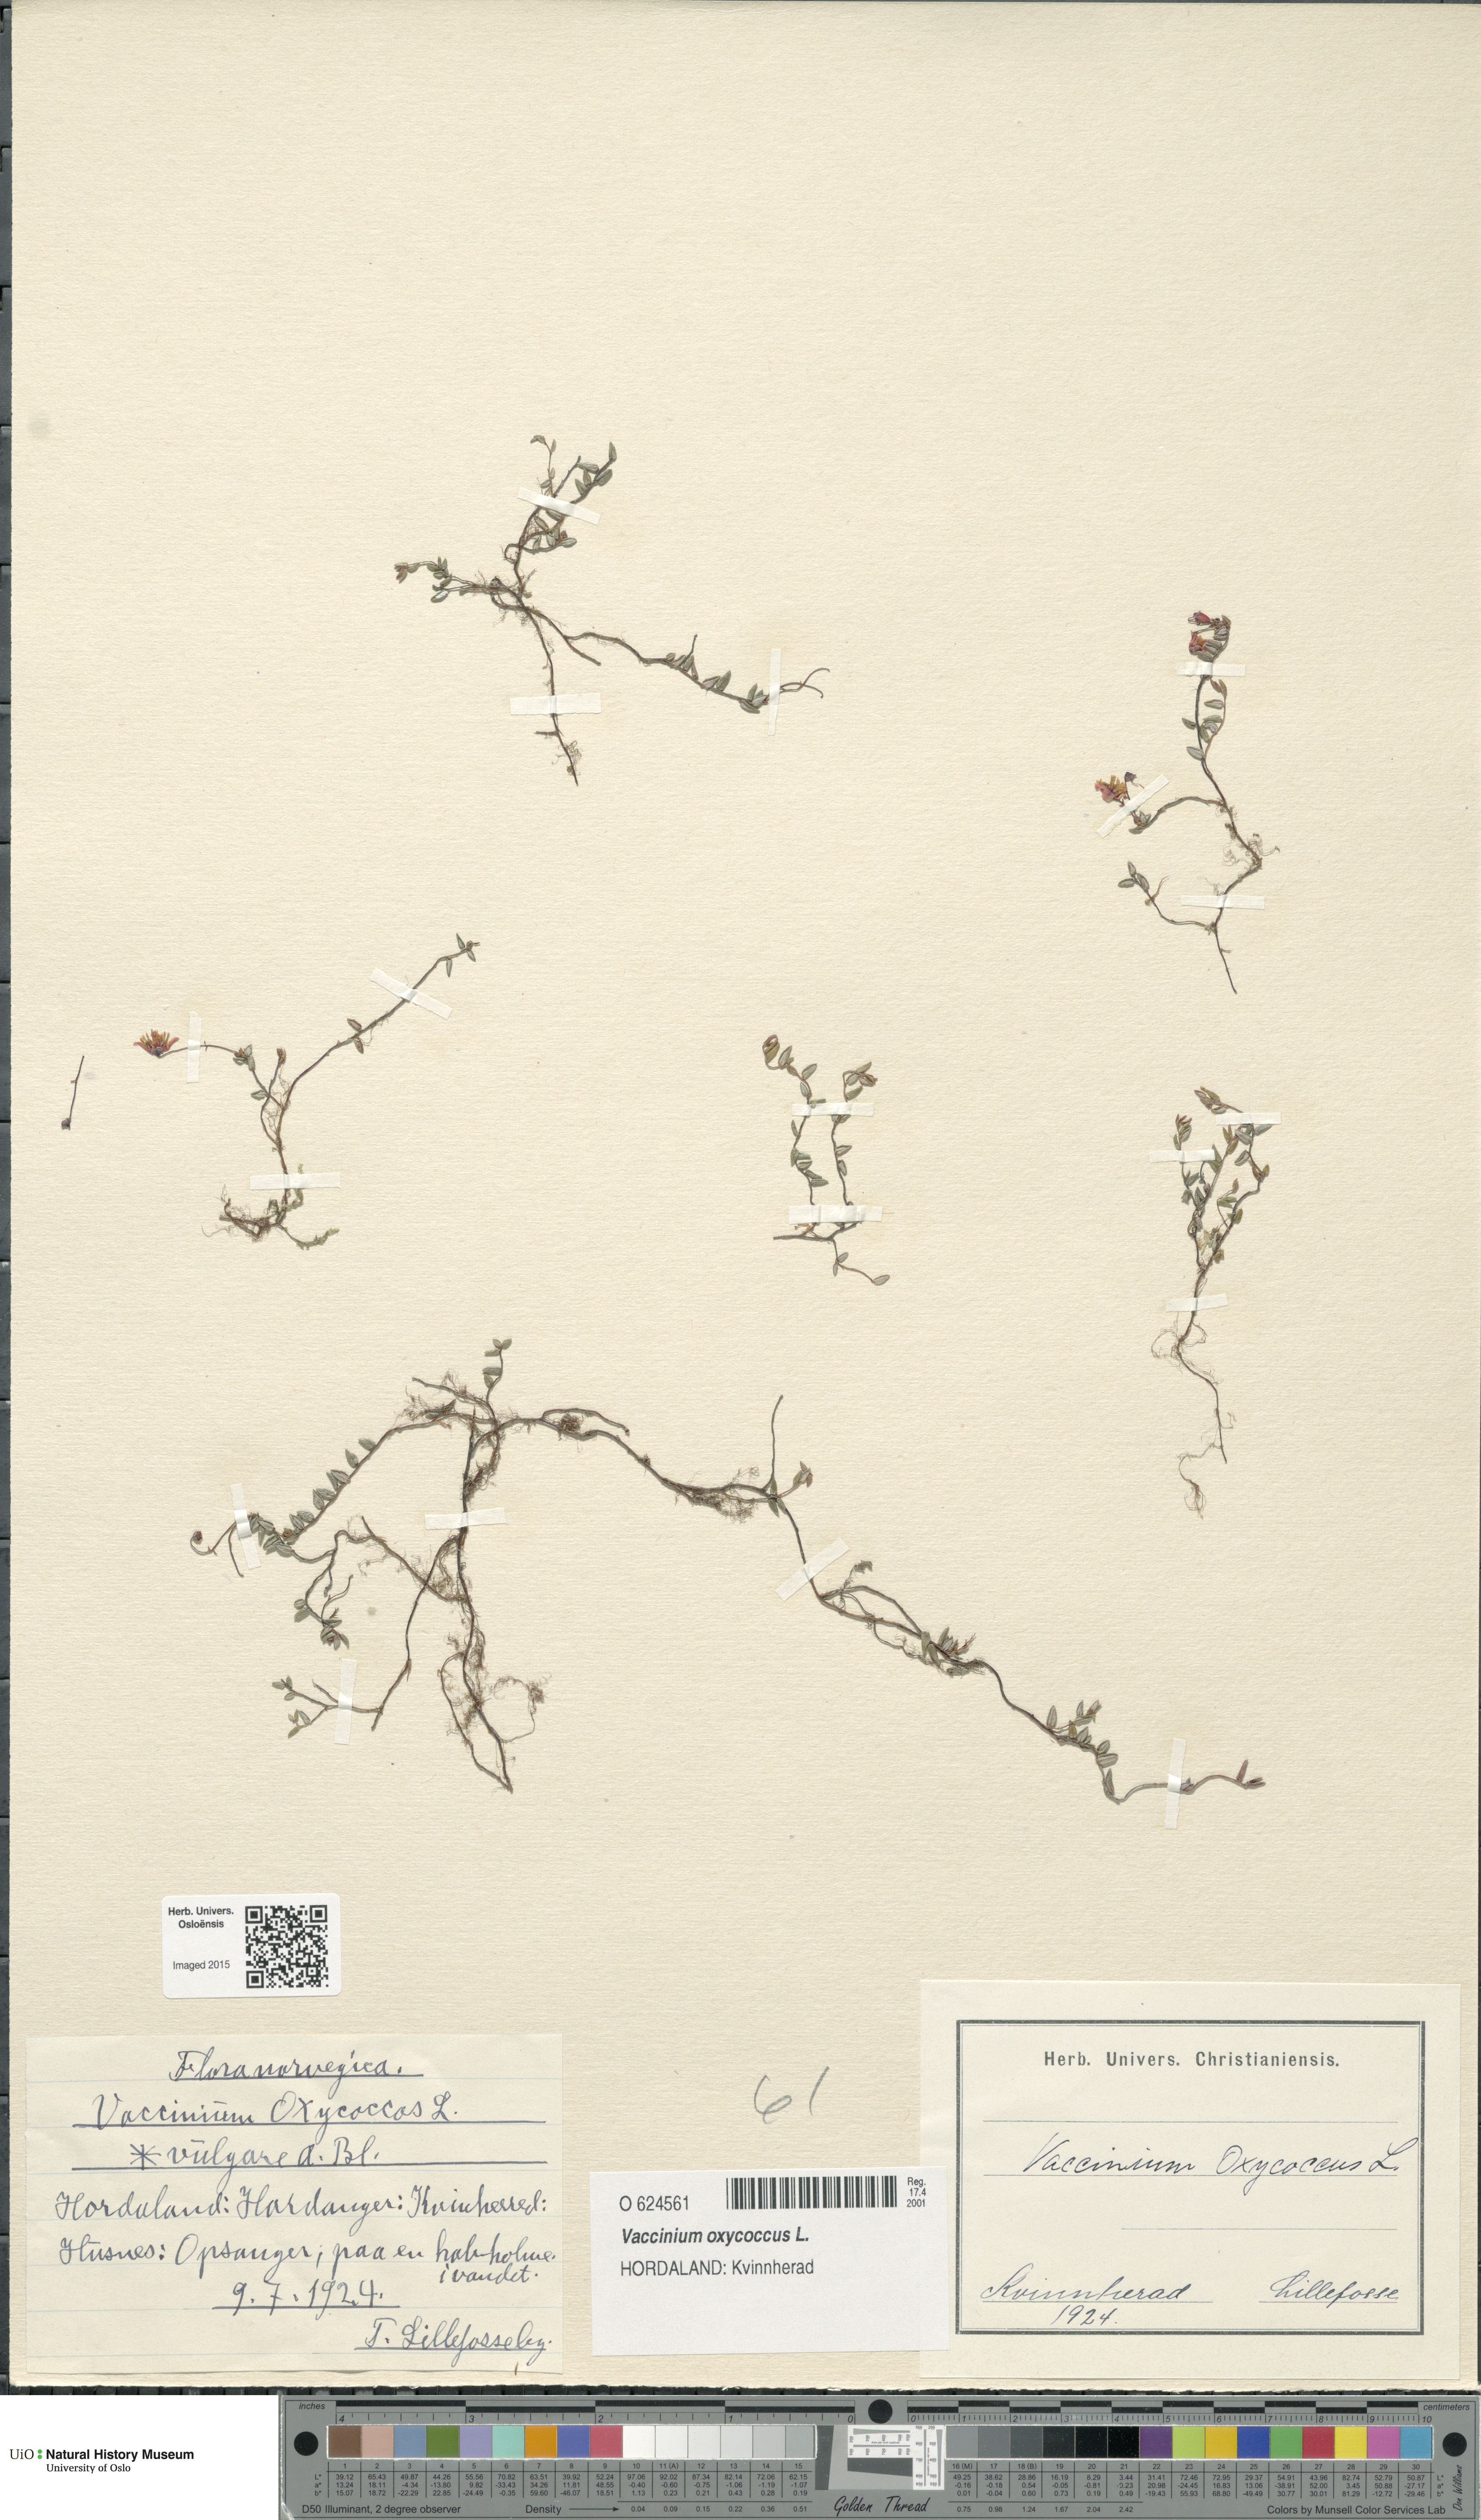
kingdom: Plantae
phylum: Tracheophyta
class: Magnoliopsida
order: Ericales
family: Ericaceae
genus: Vaccinium
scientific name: Vaccinium oxycoccos
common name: Cranberry
